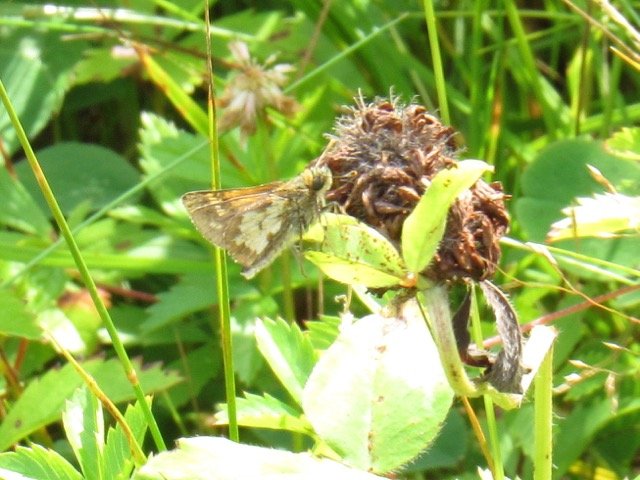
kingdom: Animalia
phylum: Arthropoda
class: Insecta
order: Lepidoptera
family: Hesperiidae
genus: Polites
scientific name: Polites coras
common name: Peck's Skipper
